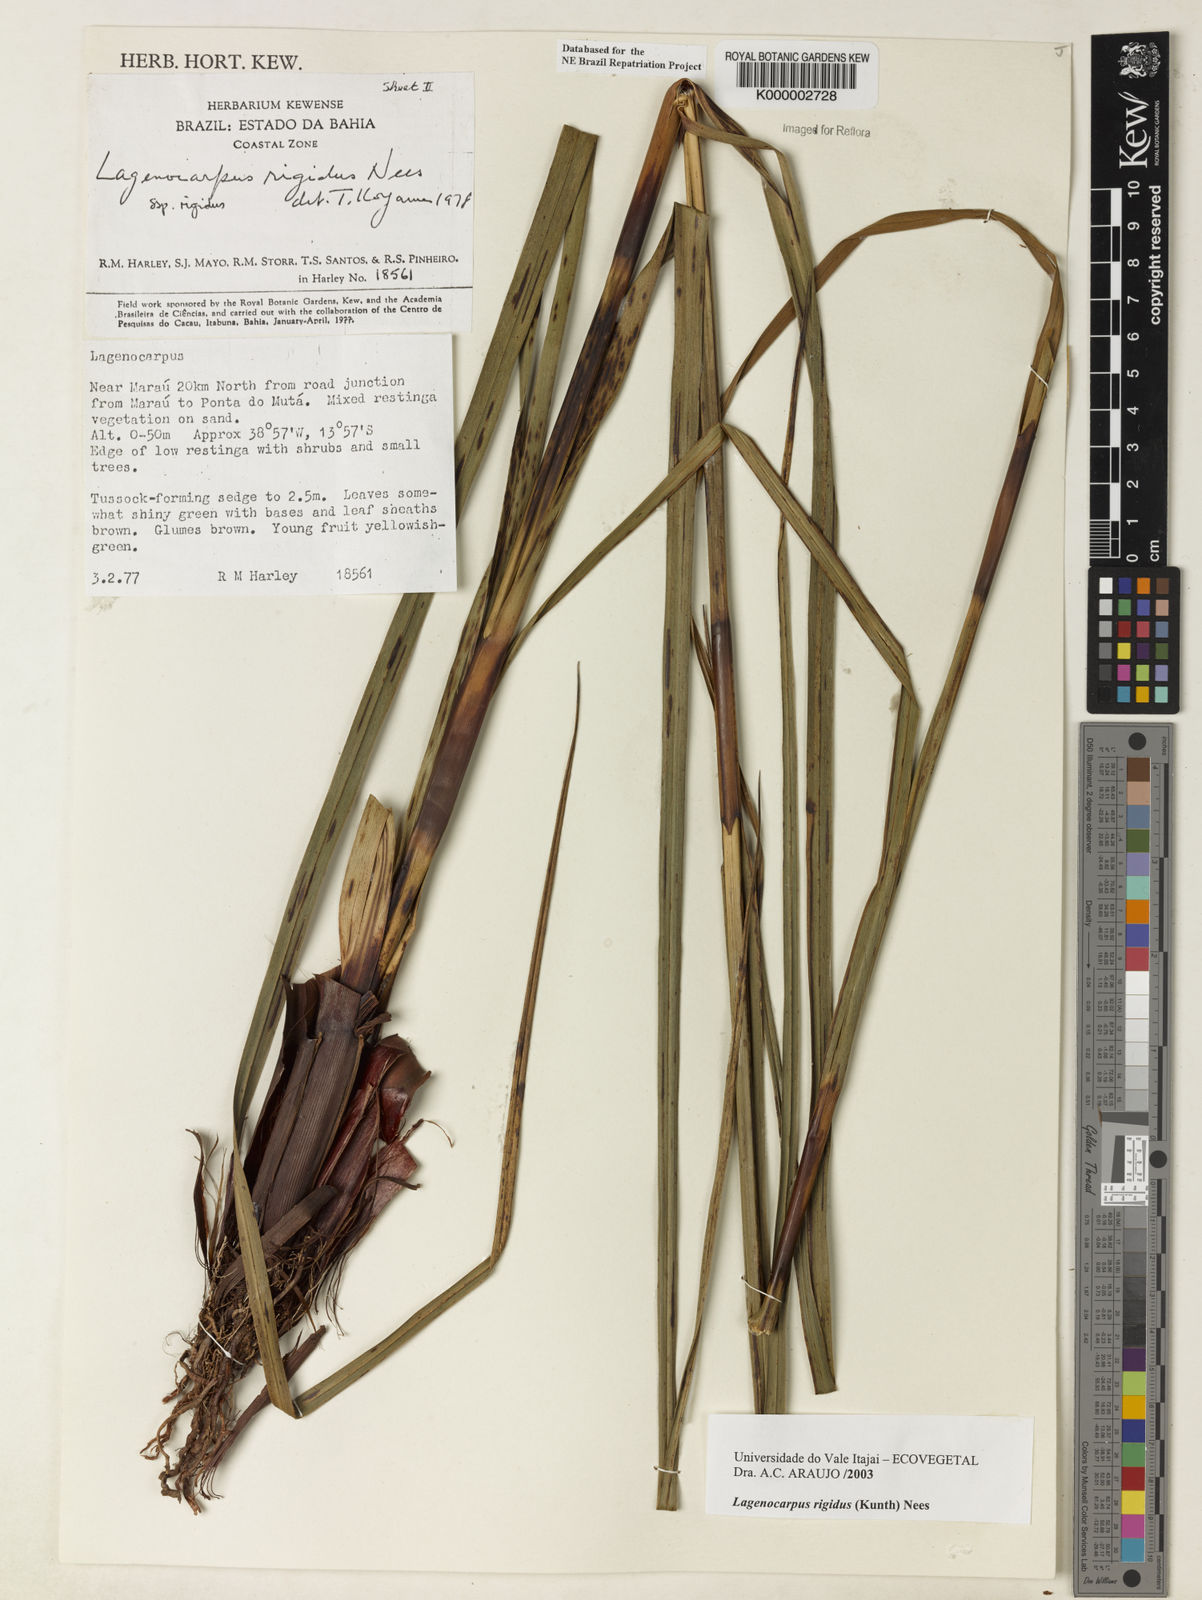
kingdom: Plantae
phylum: Tracheophyta
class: Liliopsida
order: Poales
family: Cyperaceae
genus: Lagenocarpus
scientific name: Lagenocarpus rigidus
